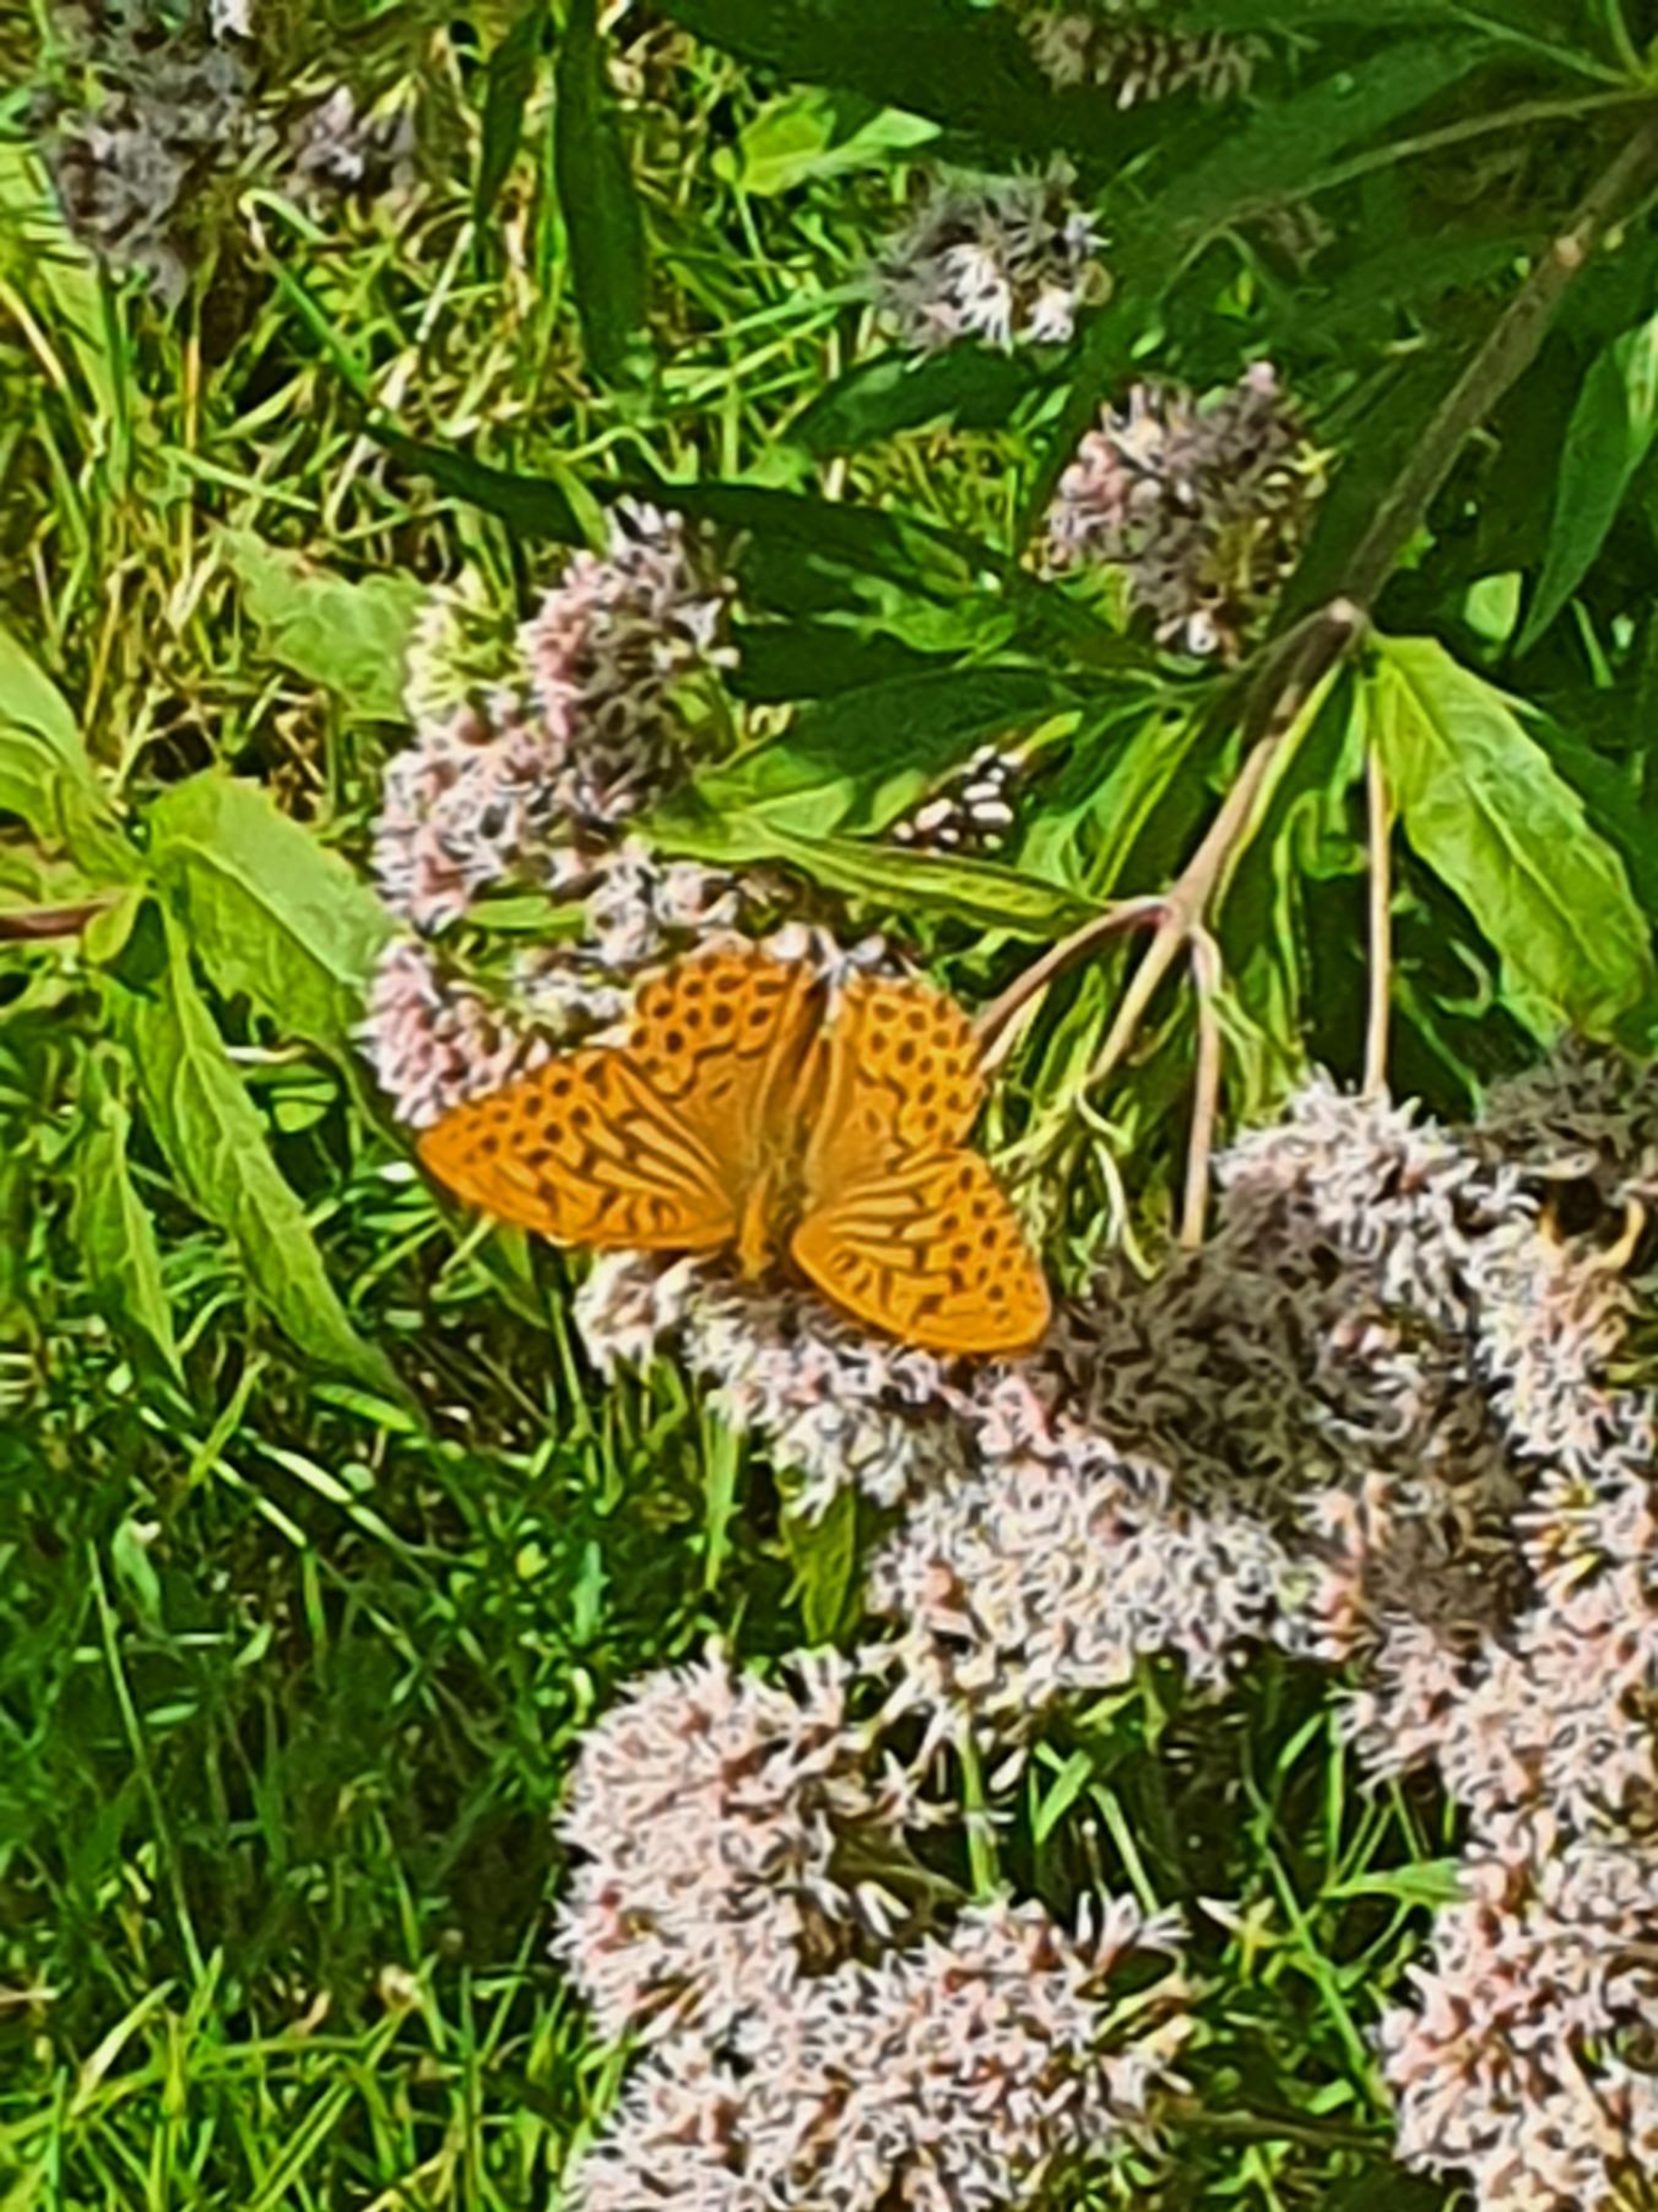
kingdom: Animalia
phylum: Arthropoda
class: Insecta
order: Lepidoptera
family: Nymphalidae
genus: Argynnis
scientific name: Argynnis paphia
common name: Kejserkåbe
